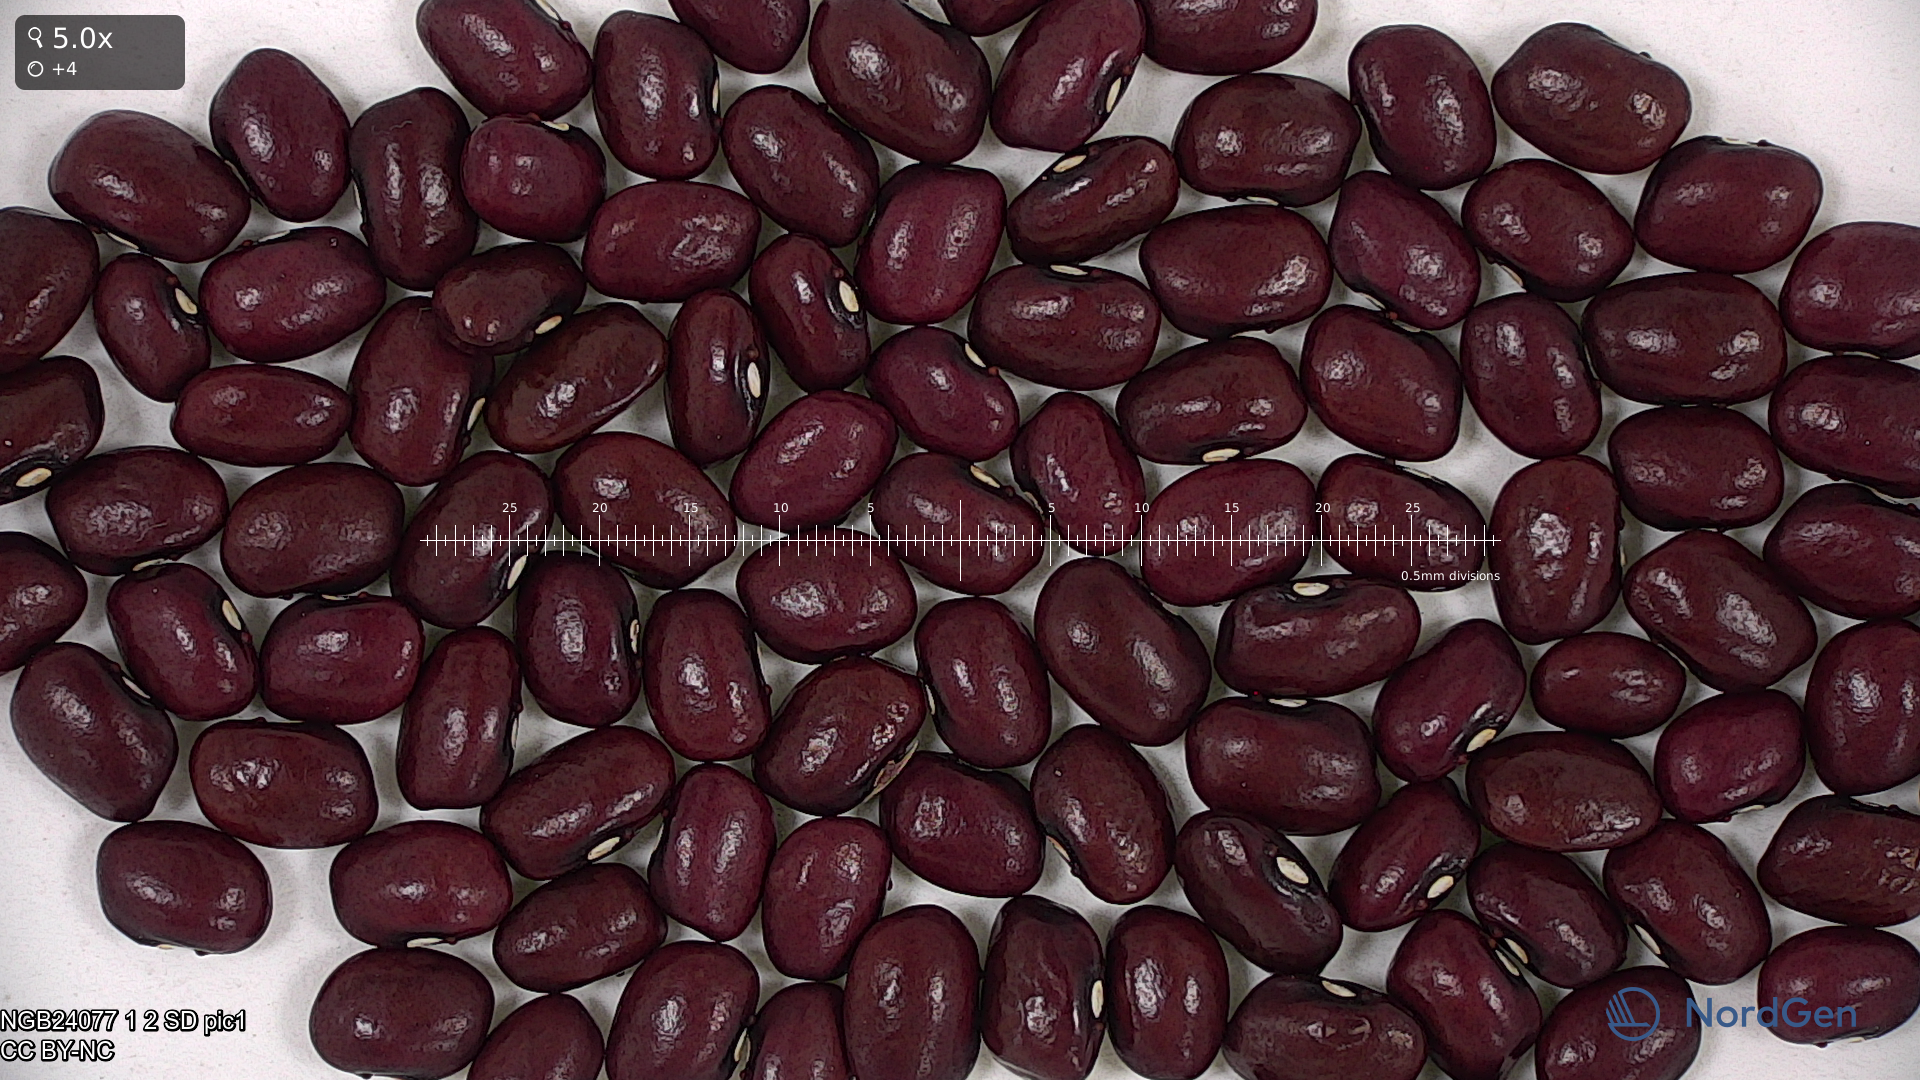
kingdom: Plantae
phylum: Tracheophyta
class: Magnoliopsida
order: Fabales
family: Fabaceae
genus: Phaseolus
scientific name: Phaseolus vulgaris
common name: Bean
